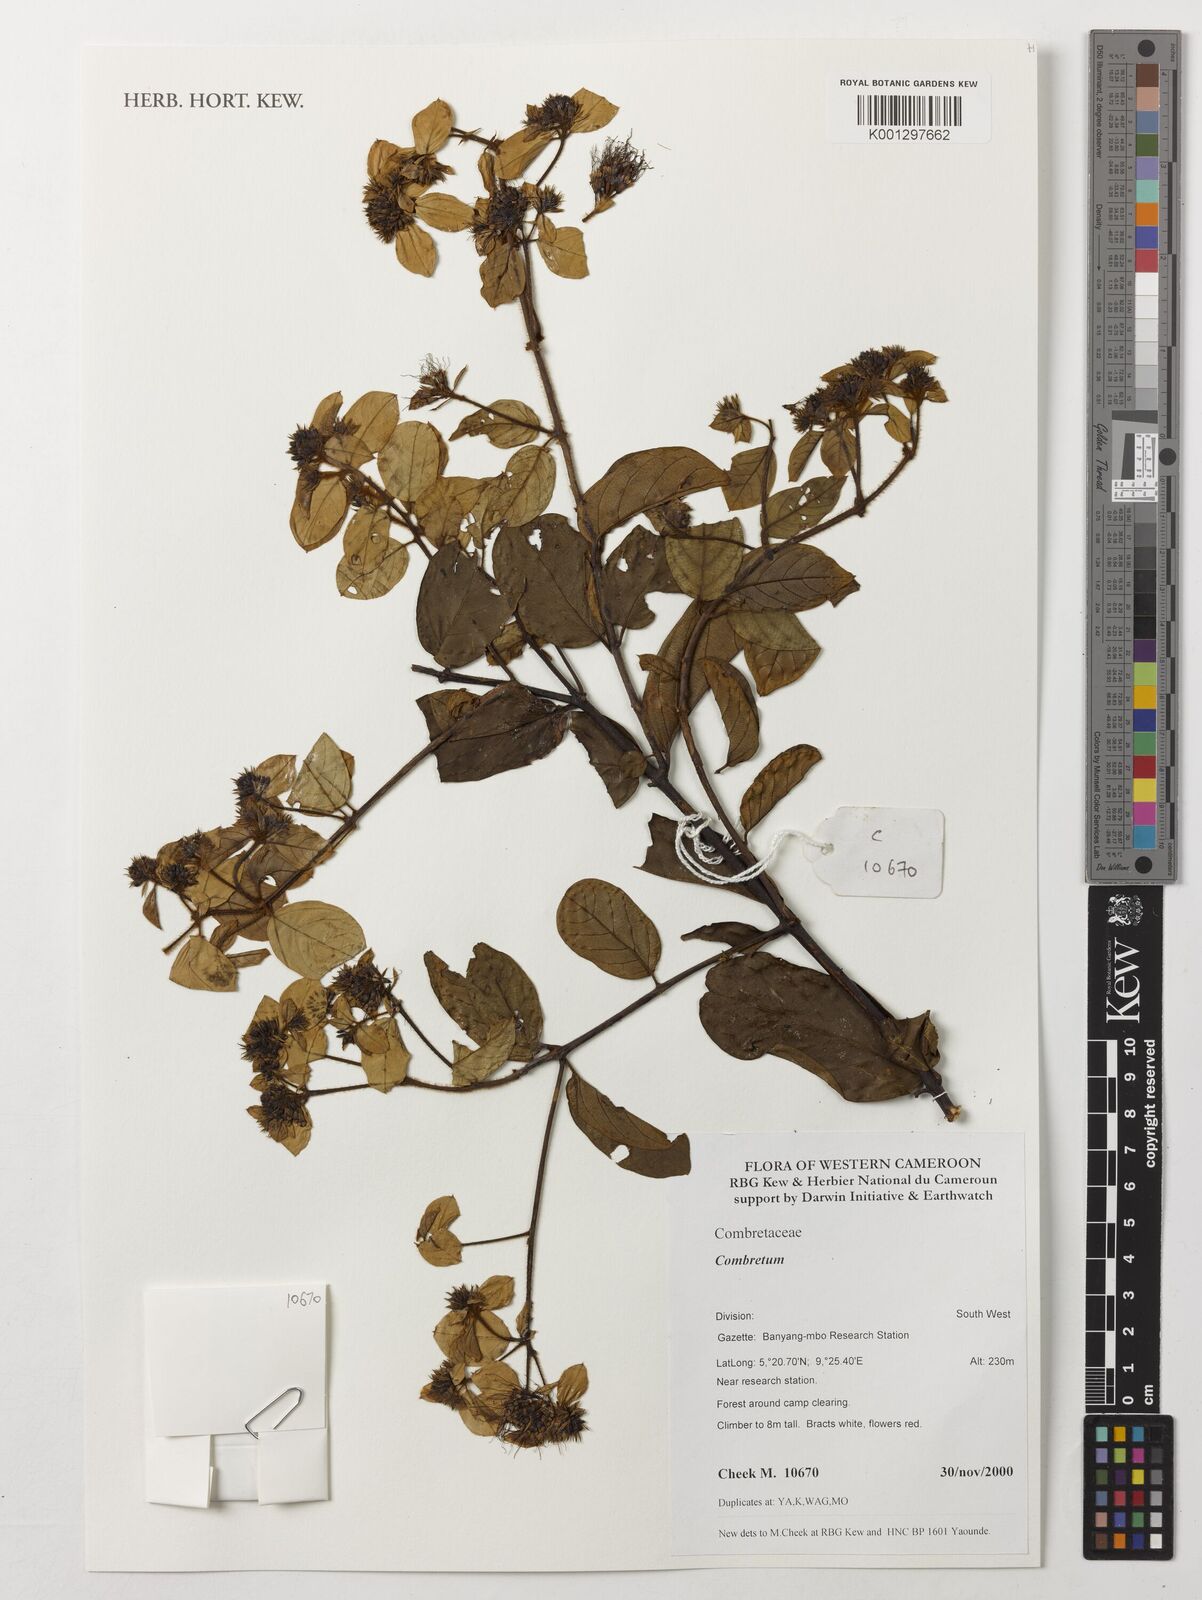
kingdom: Plantae
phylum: Tracheophyta
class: Magnoliopsida
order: Myrtales
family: Combretaceae
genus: Combretum
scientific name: Combretum
